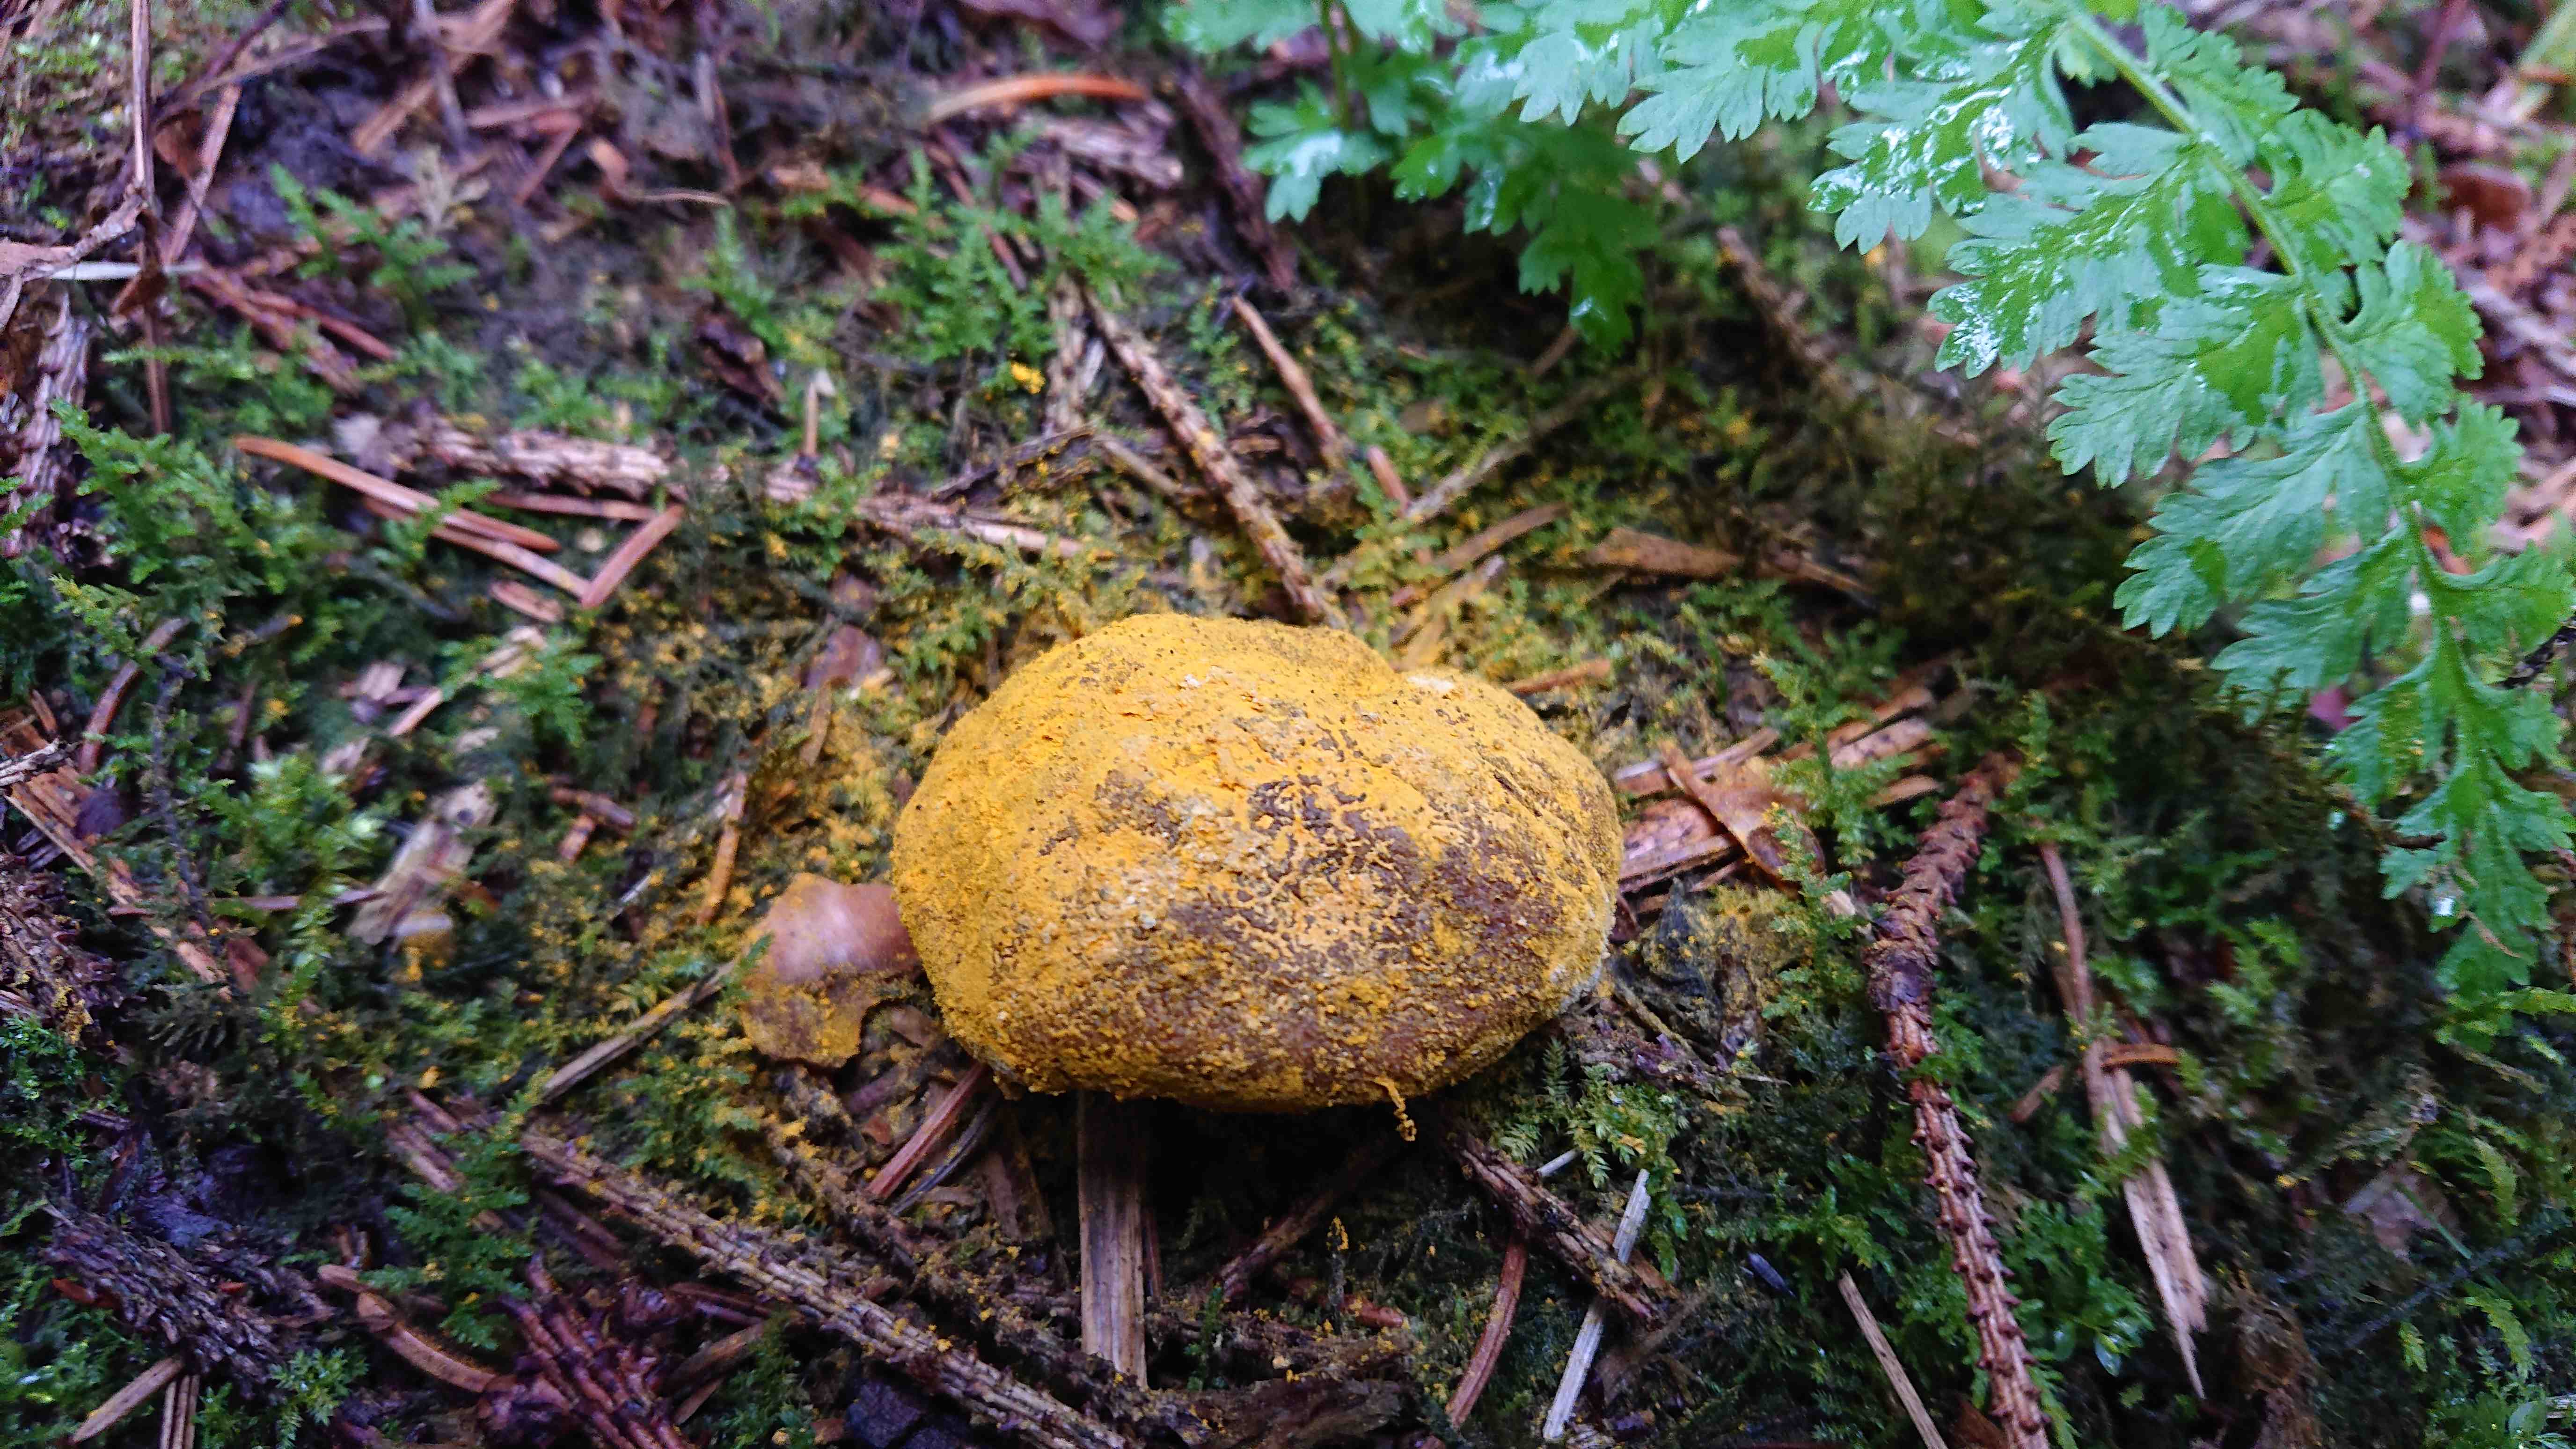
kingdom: Fungi
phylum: Ascomycota
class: Sordariomycetes
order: Hypocreales
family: Hypocreaceae
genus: Hypomyces
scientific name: Hypomyces microspermus
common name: dværgrørhat-snylteskorpe
